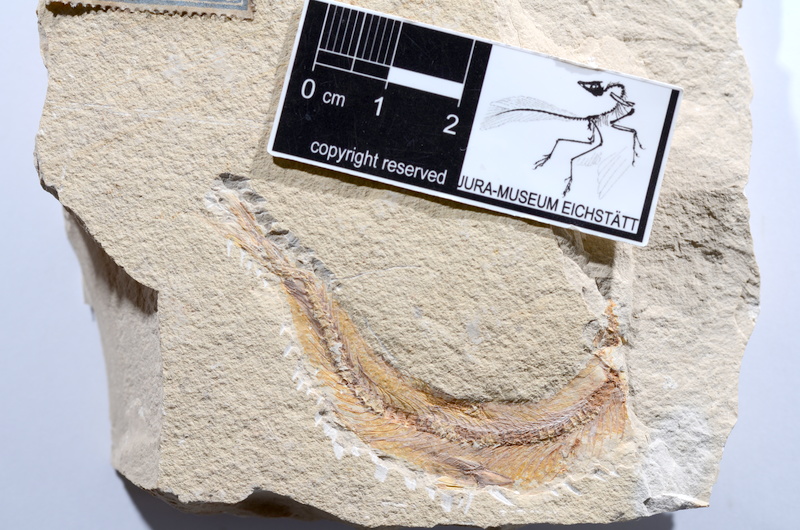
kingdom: Animalia
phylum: Chordata
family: Ascalaboidae
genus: Tharsis
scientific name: Tharsis dubius
